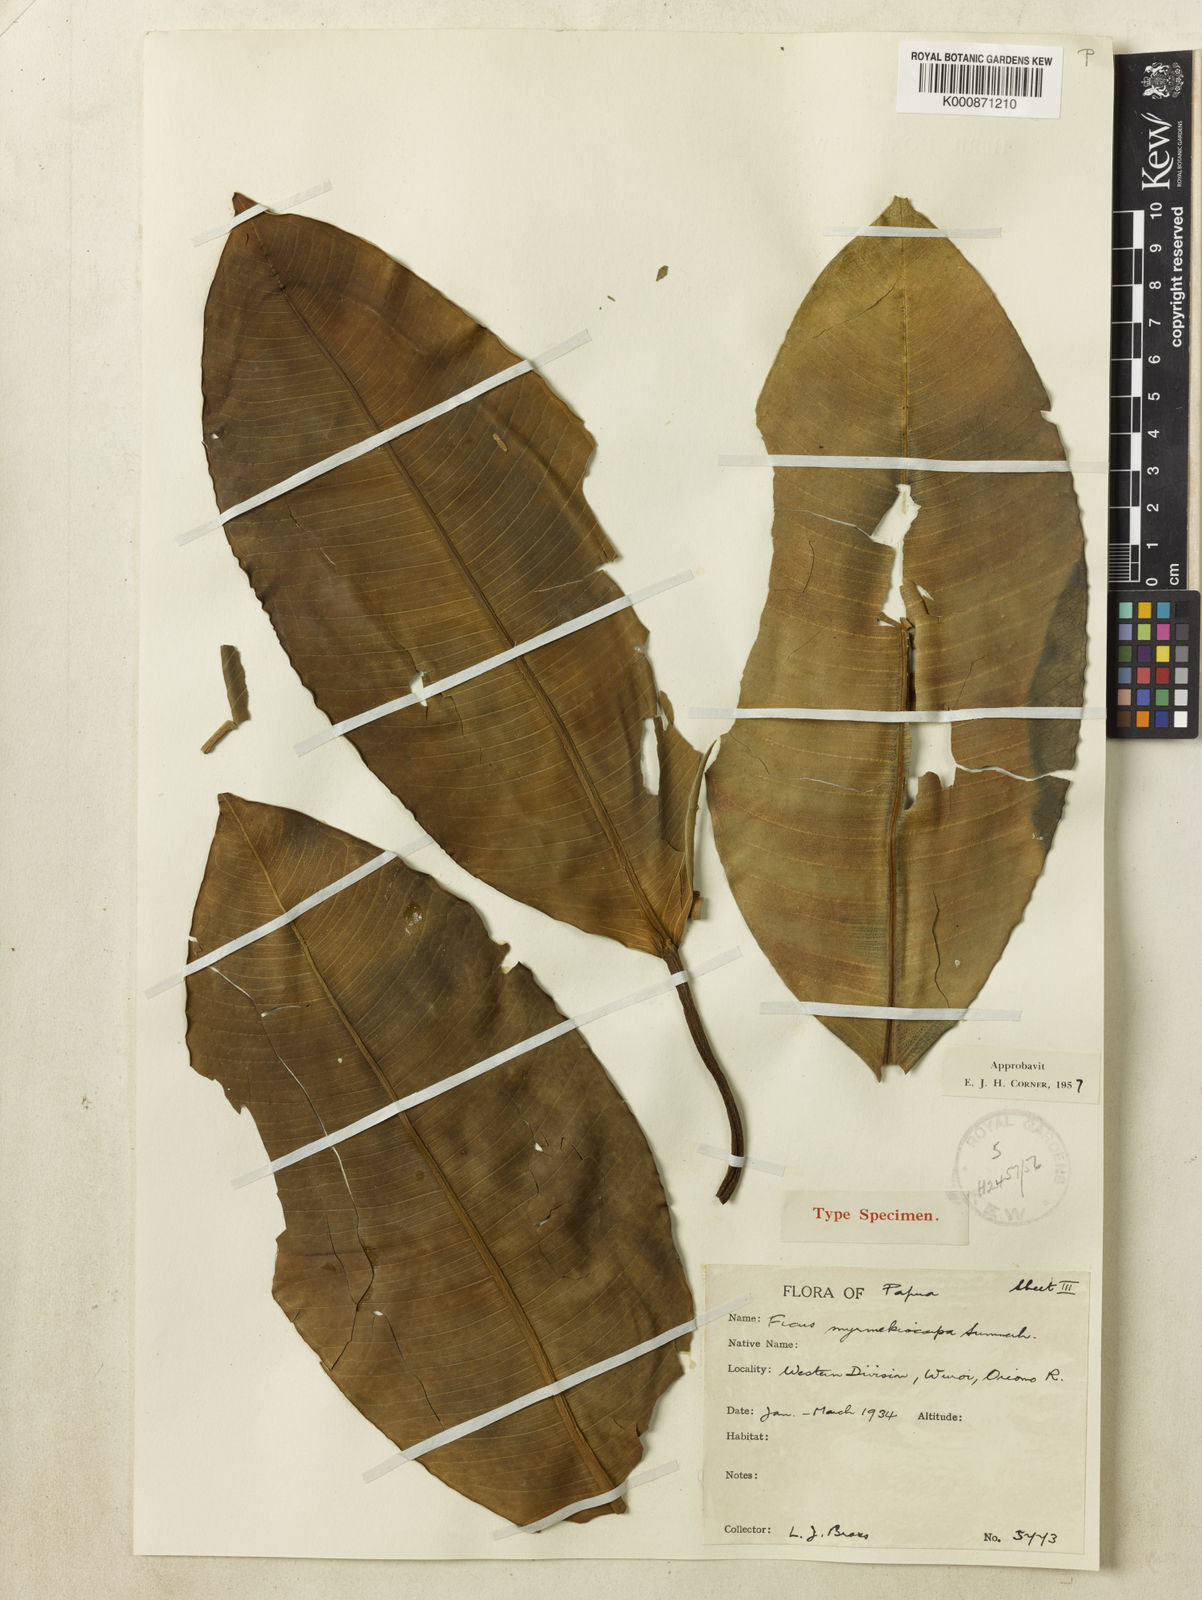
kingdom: Plantae
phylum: Tracheophyta
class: Magnoliopsida
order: Rosales
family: Moraceae
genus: Ficus
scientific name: Ficus hesperidiiformis
